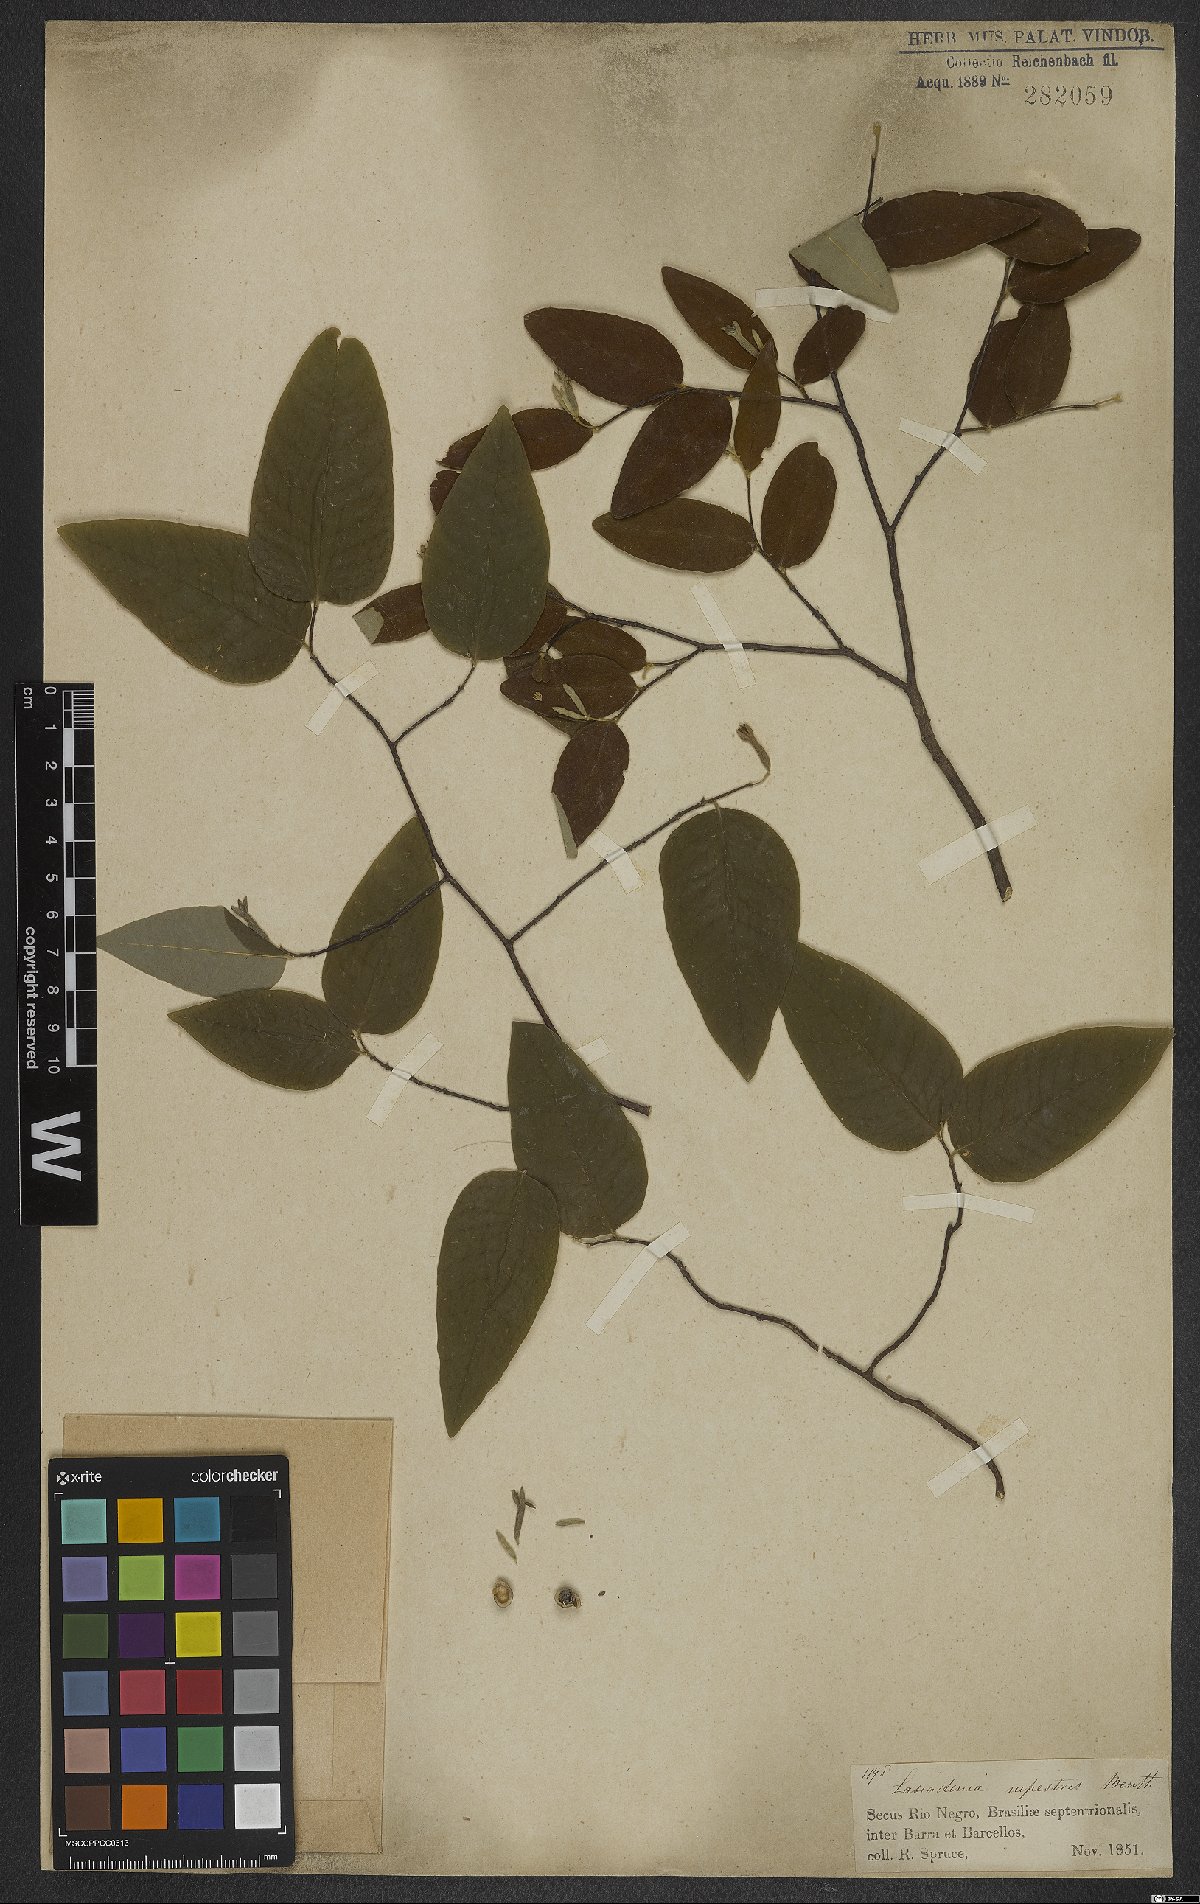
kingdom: Plantae
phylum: Tracheophyta
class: Magnoliopsida
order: Malvales
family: Thymelaeaceae
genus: Lasiadenia
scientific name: Lasiadenia rupestris
